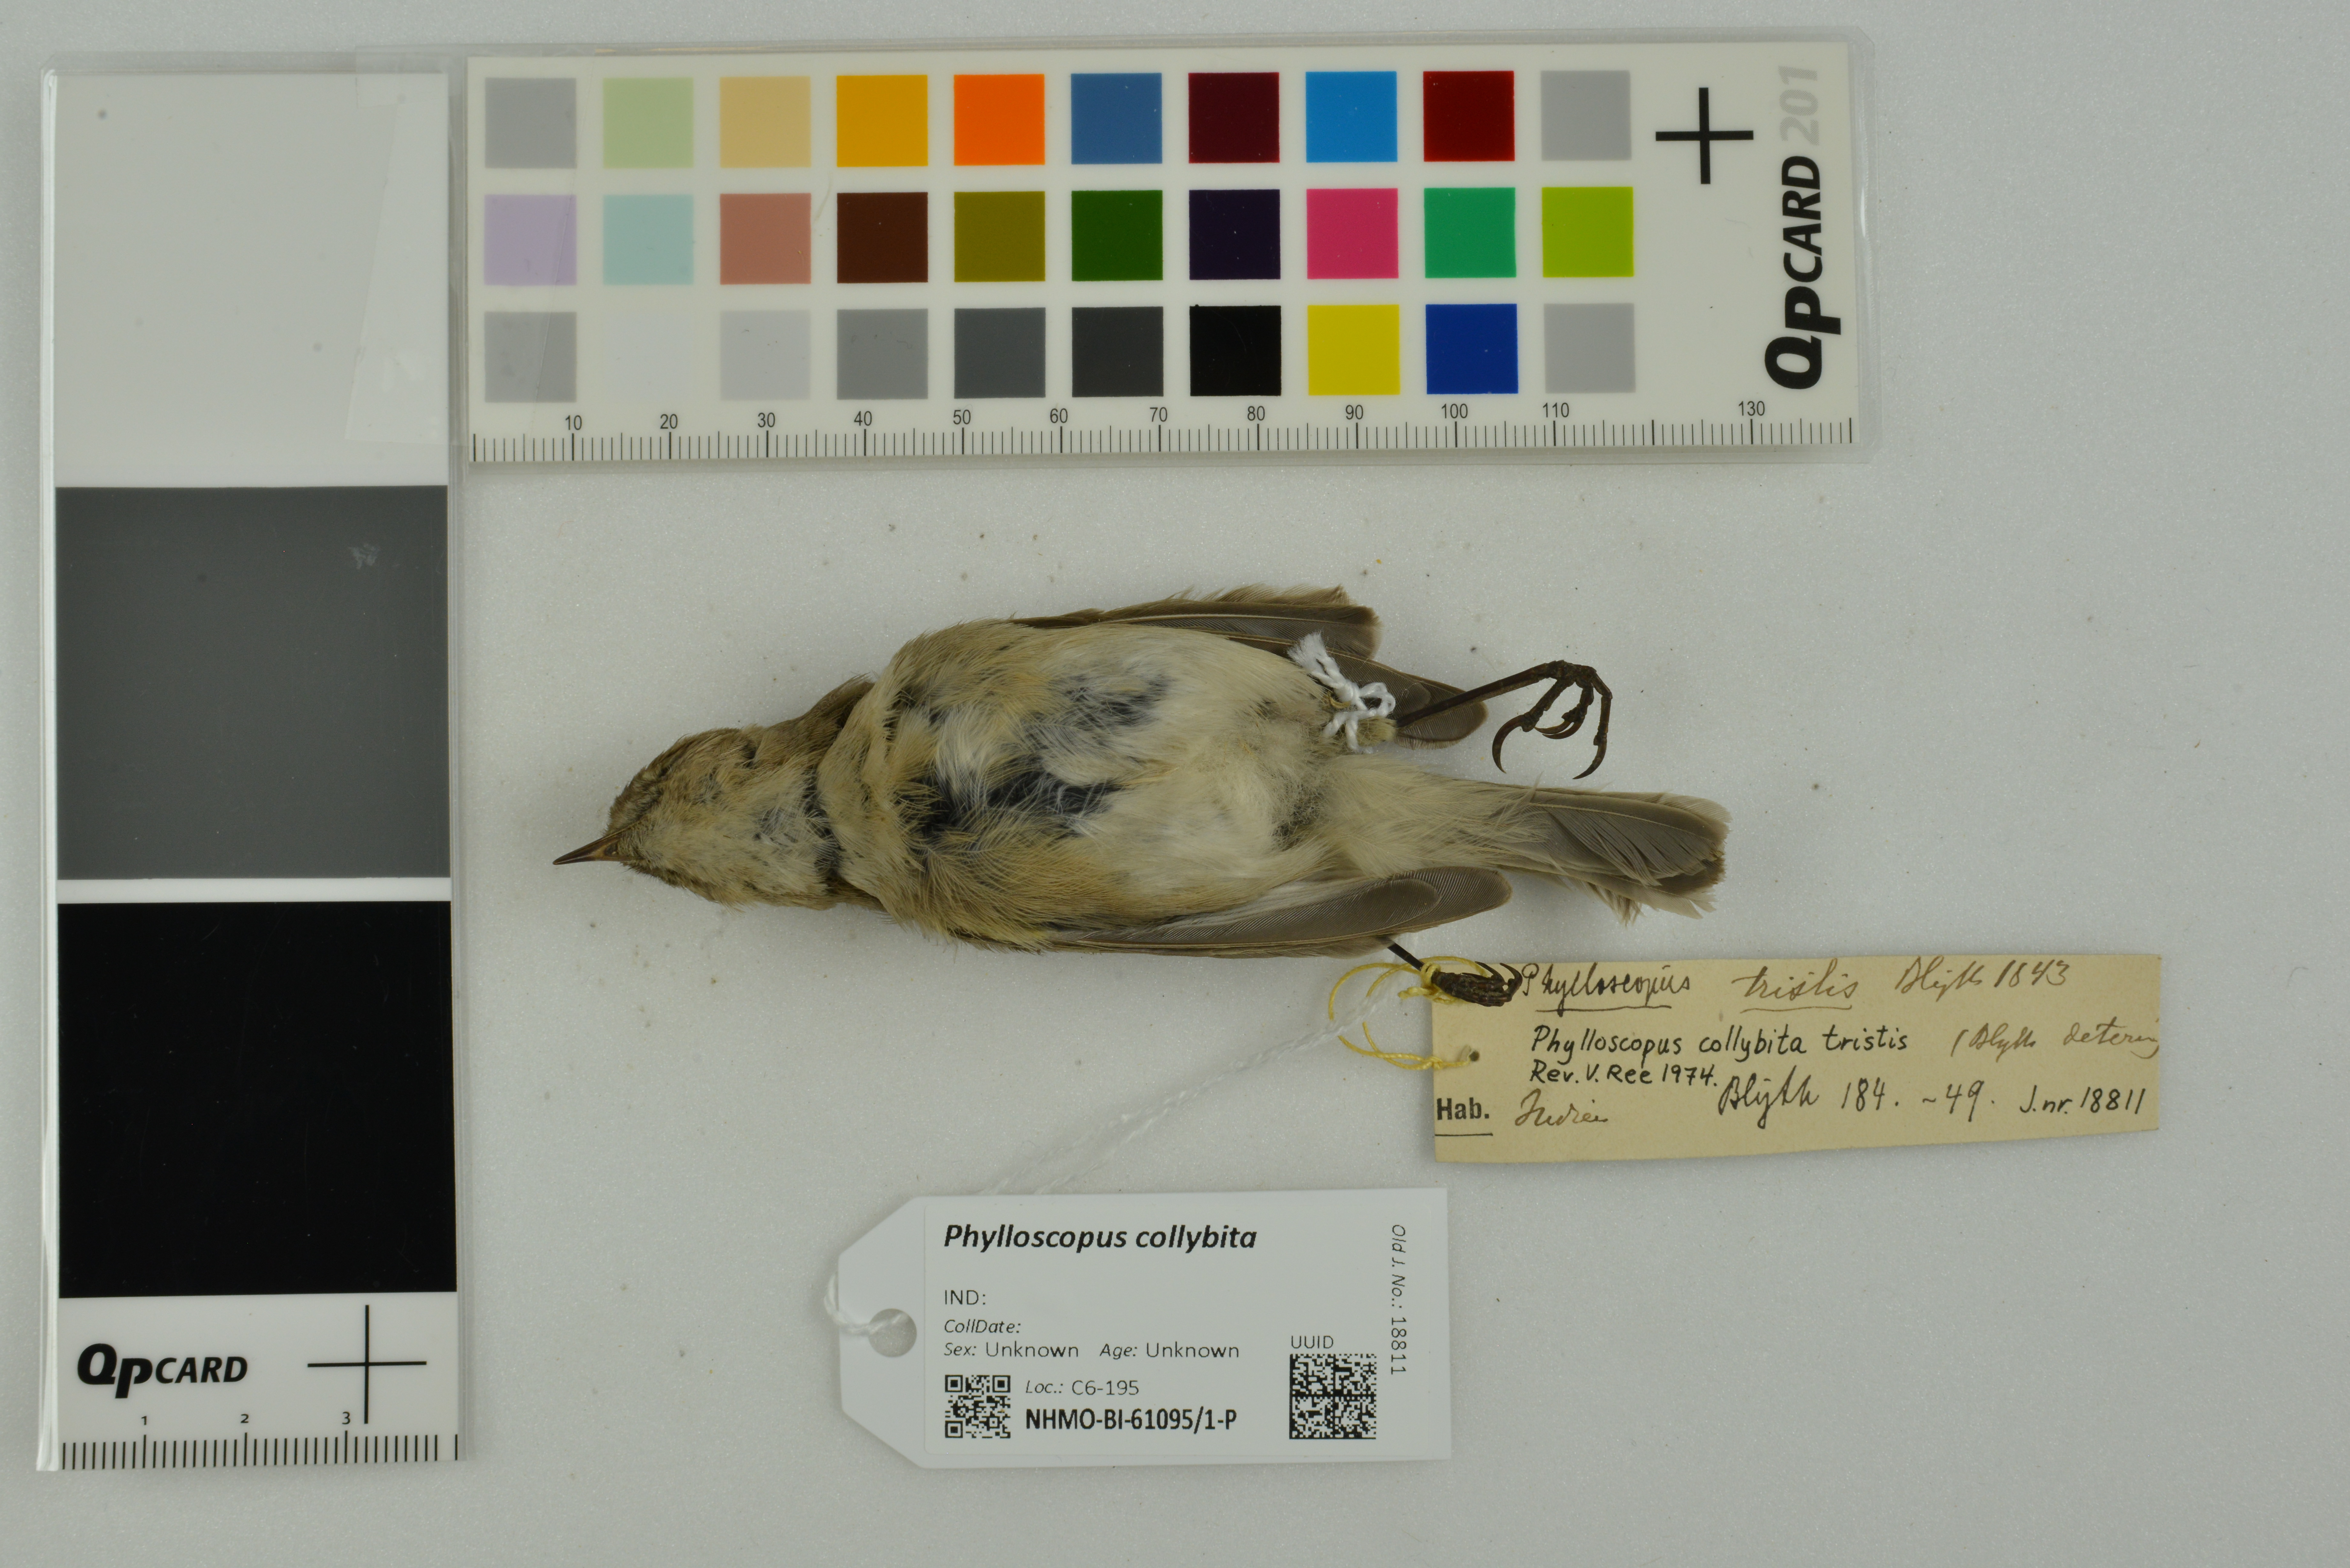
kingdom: Animalia
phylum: Chordata
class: Aves
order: Passeriformes
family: Phylloscopidae
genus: Phylloscopus
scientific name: Phylloscopus collybita
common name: Common chiffchaff
